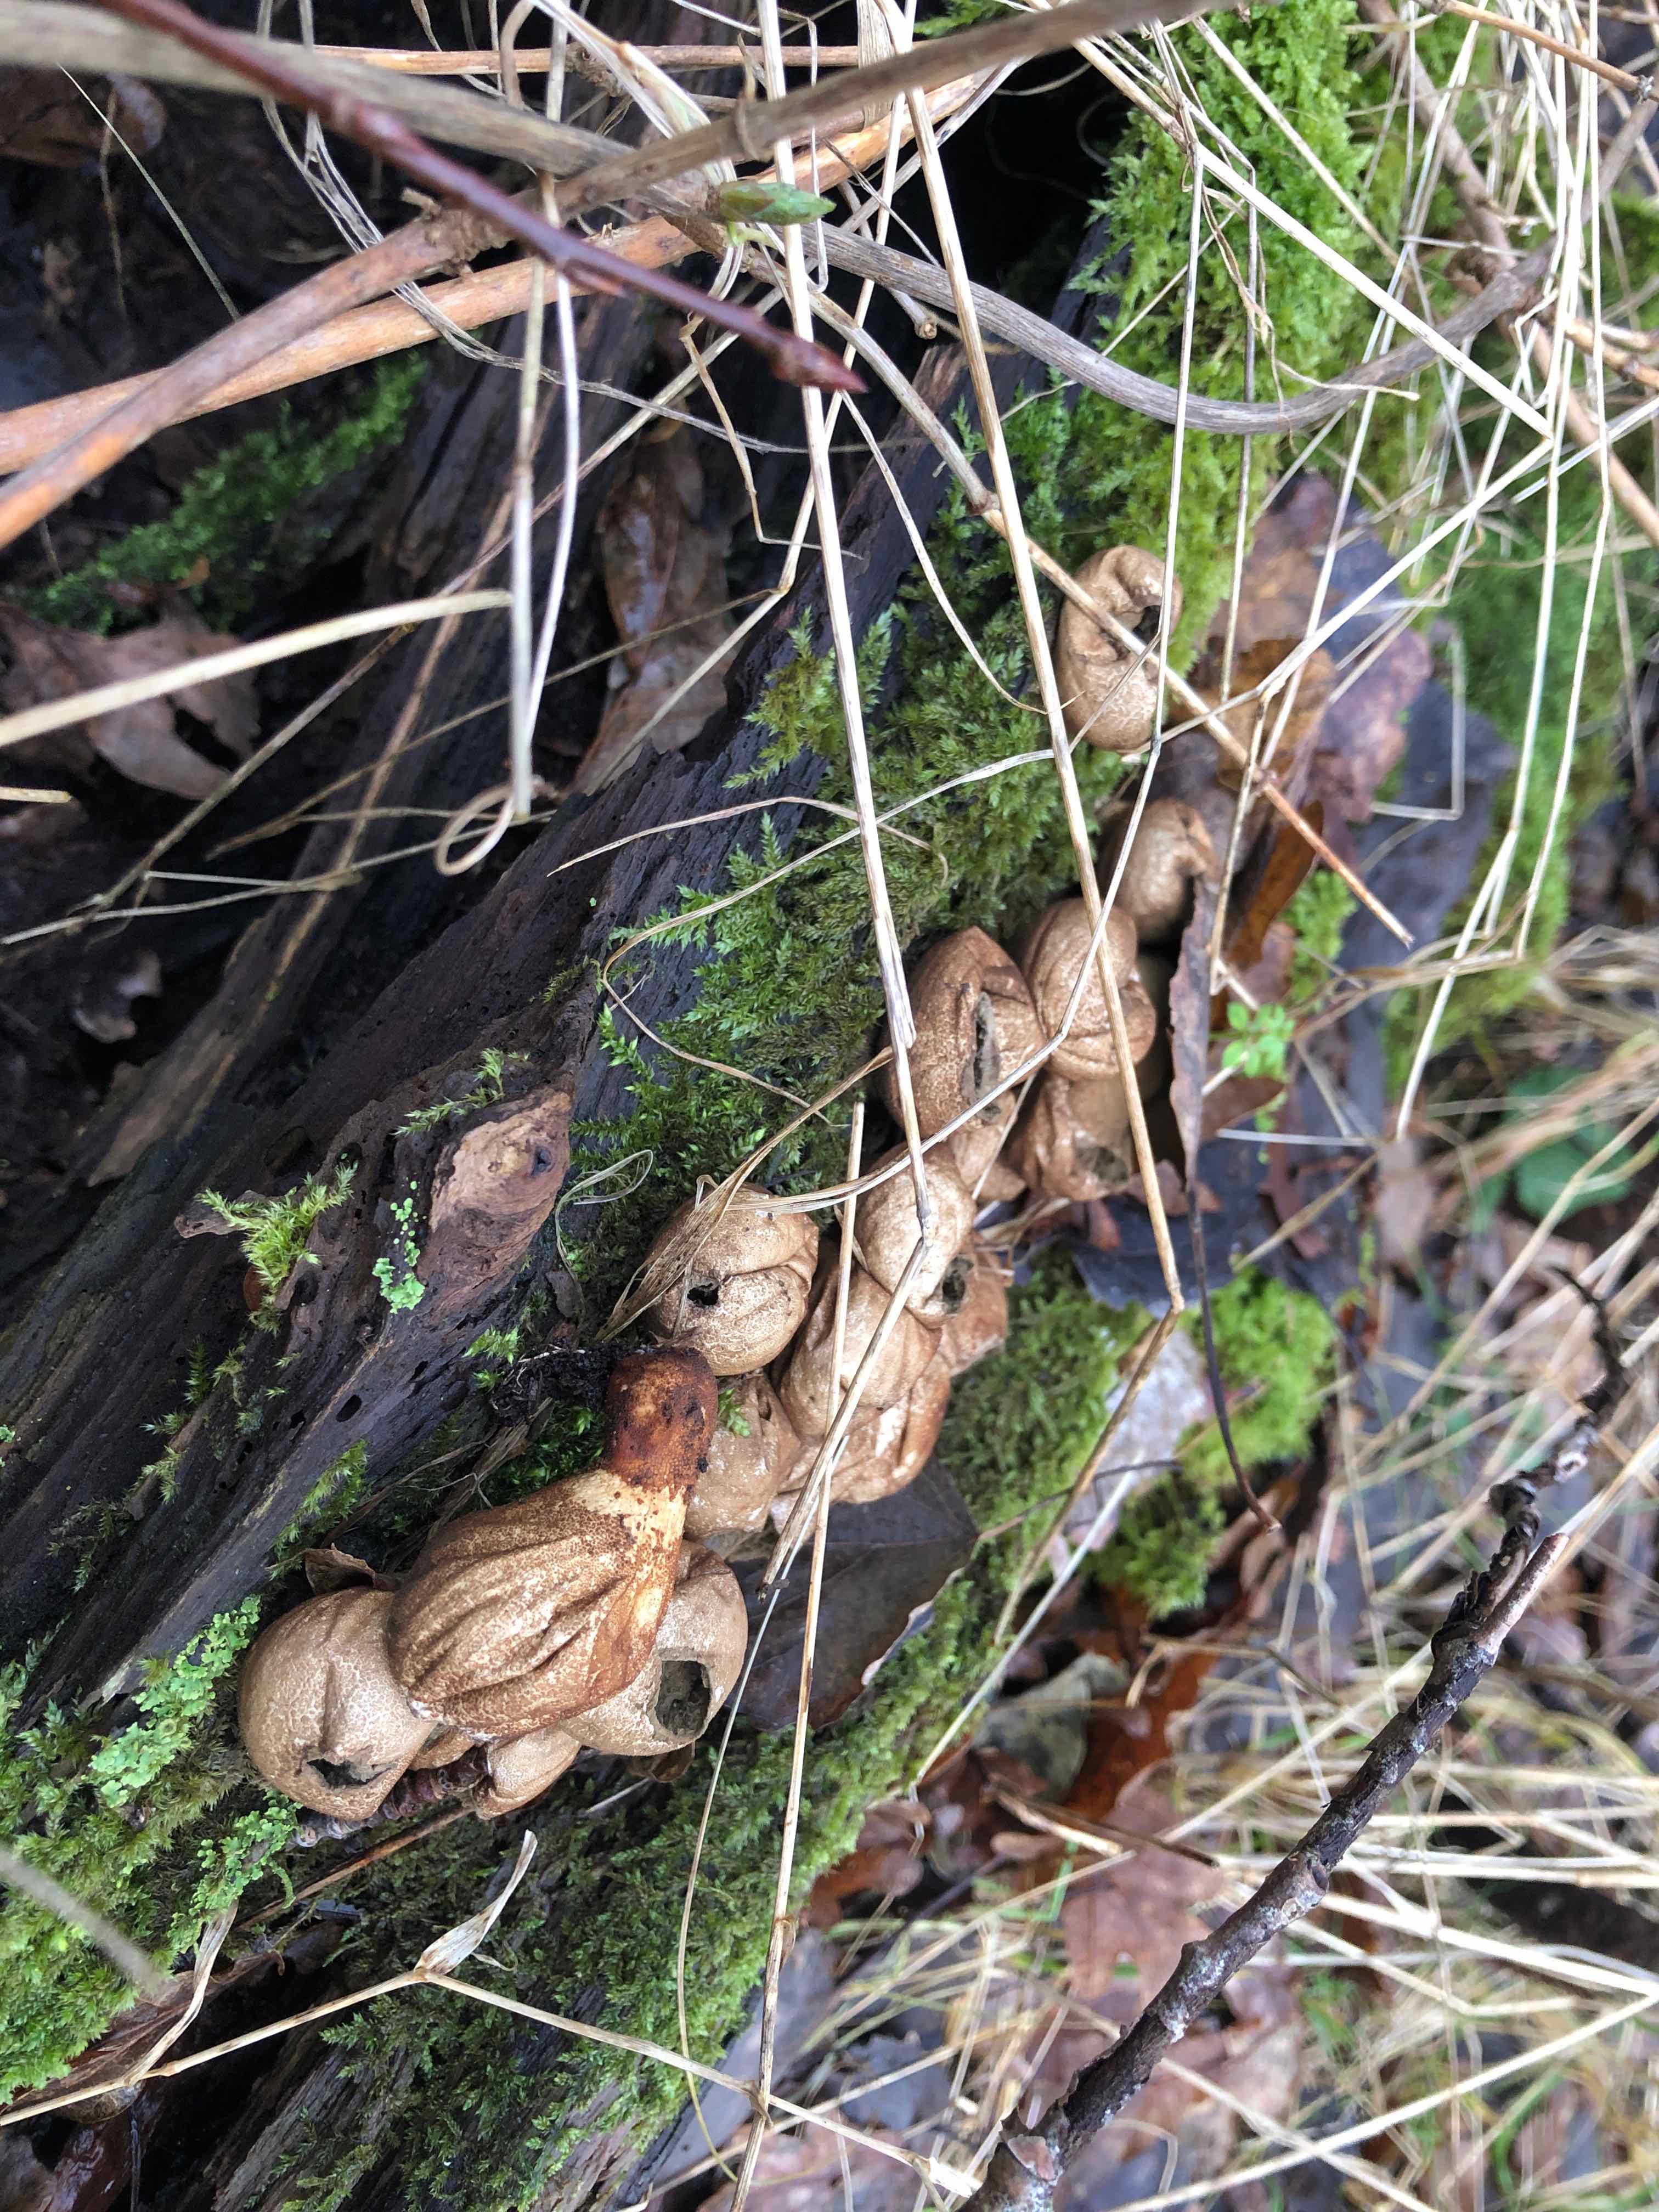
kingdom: Fungi
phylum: Basidiomycota
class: Agaricomycetes
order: Agaricales
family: Lycoperdaceae
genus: Apioperdon
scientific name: Apioperdon pyriforme
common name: pære-støvbold
